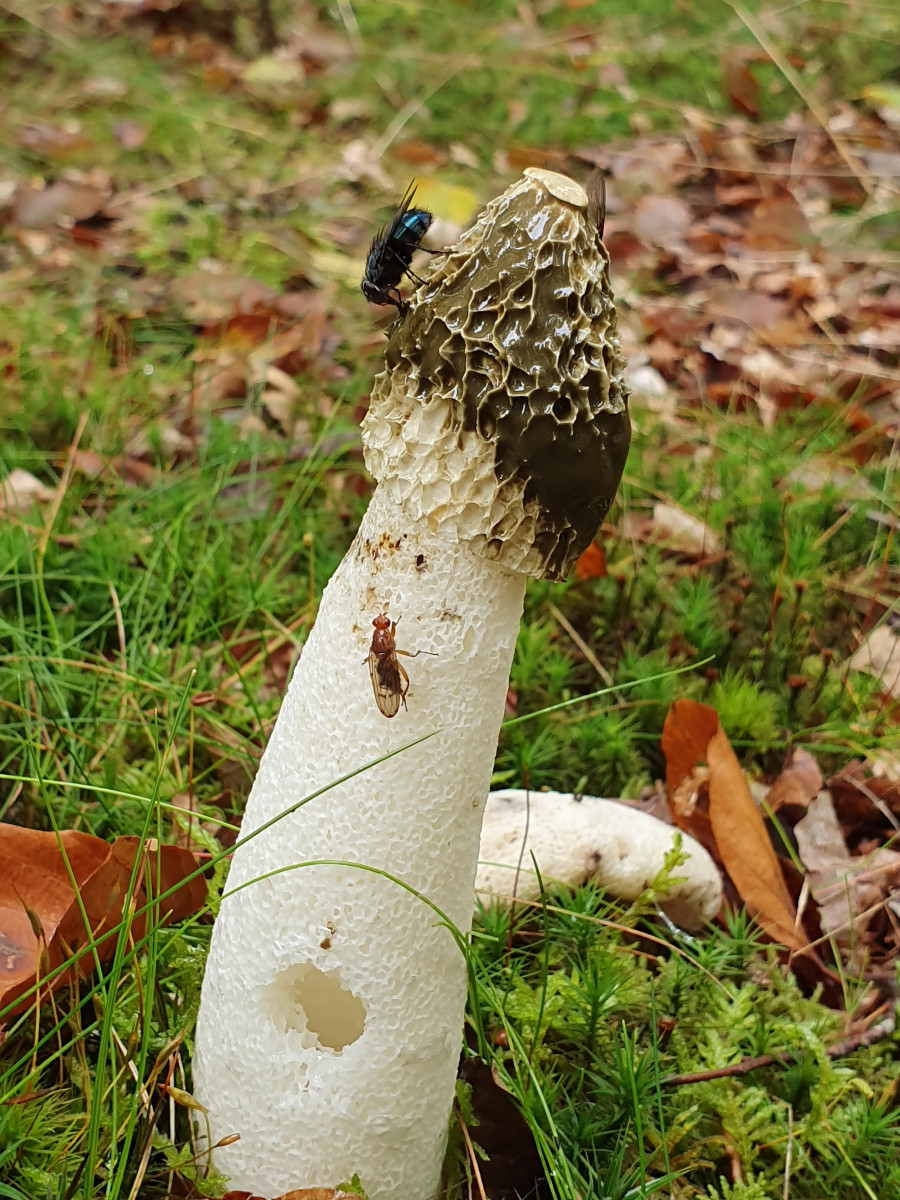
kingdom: Fungi
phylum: Basidiomycota
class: Agaricomycetes
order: Phallales
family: Phallaceae
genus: Phallus
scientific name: Phallus impudicus
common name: almindelig stinksvamp
